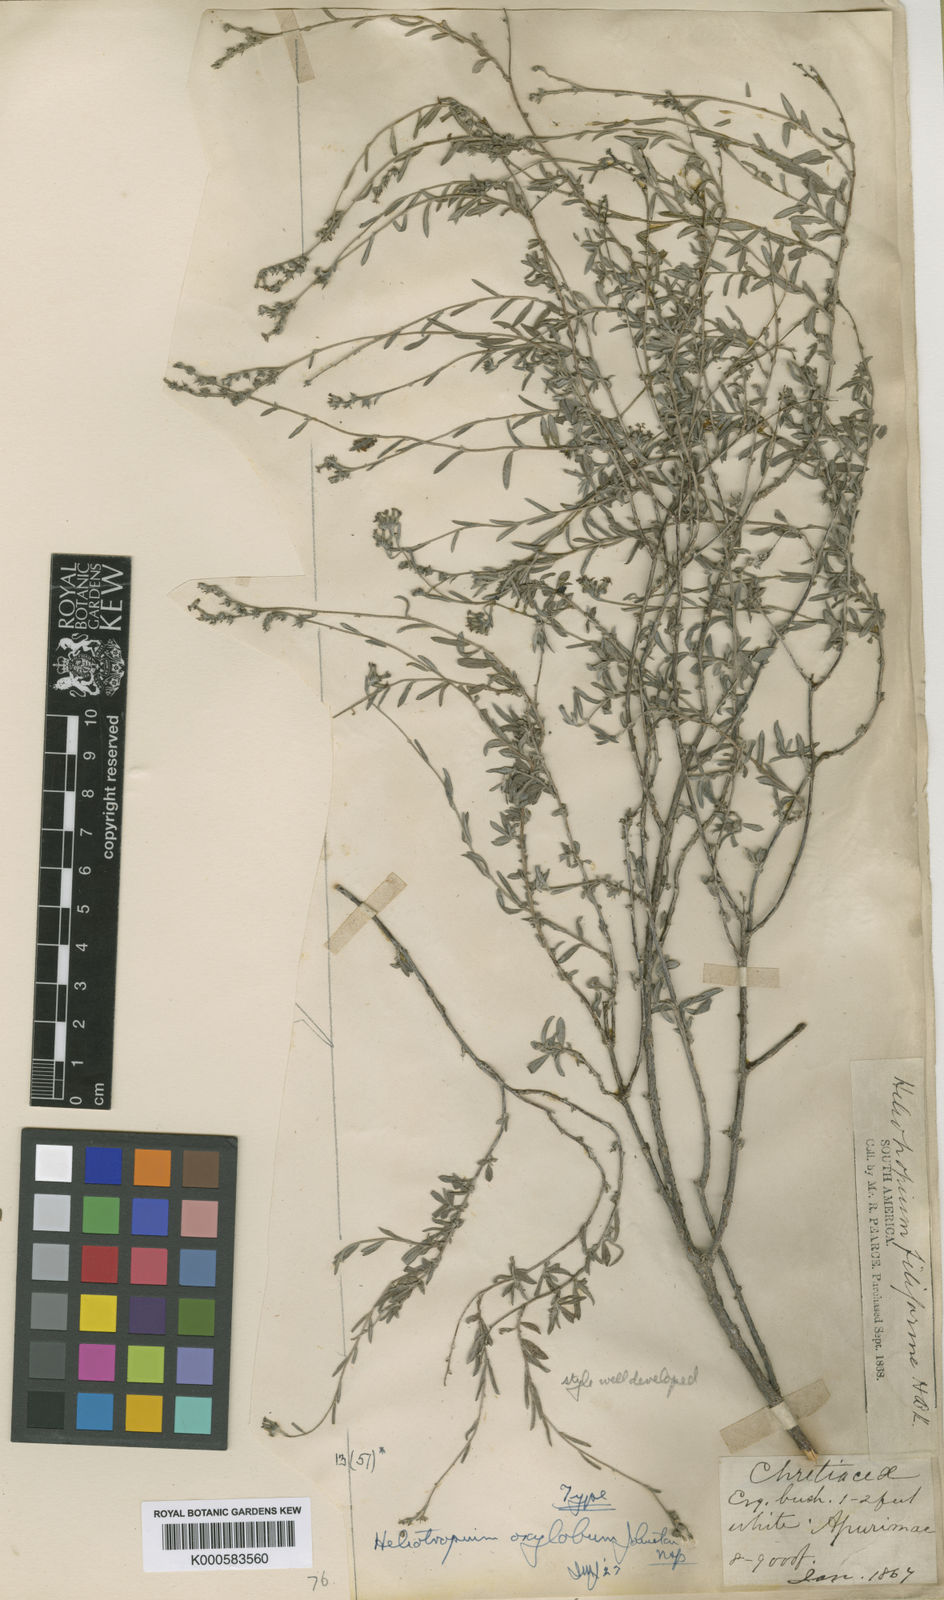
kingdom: Plantae
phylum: Tracheophyta
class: Magnoliopsida
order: Boraginales
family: Heliotropiaceae
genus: Euploca
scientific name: Euploca oxyloba
